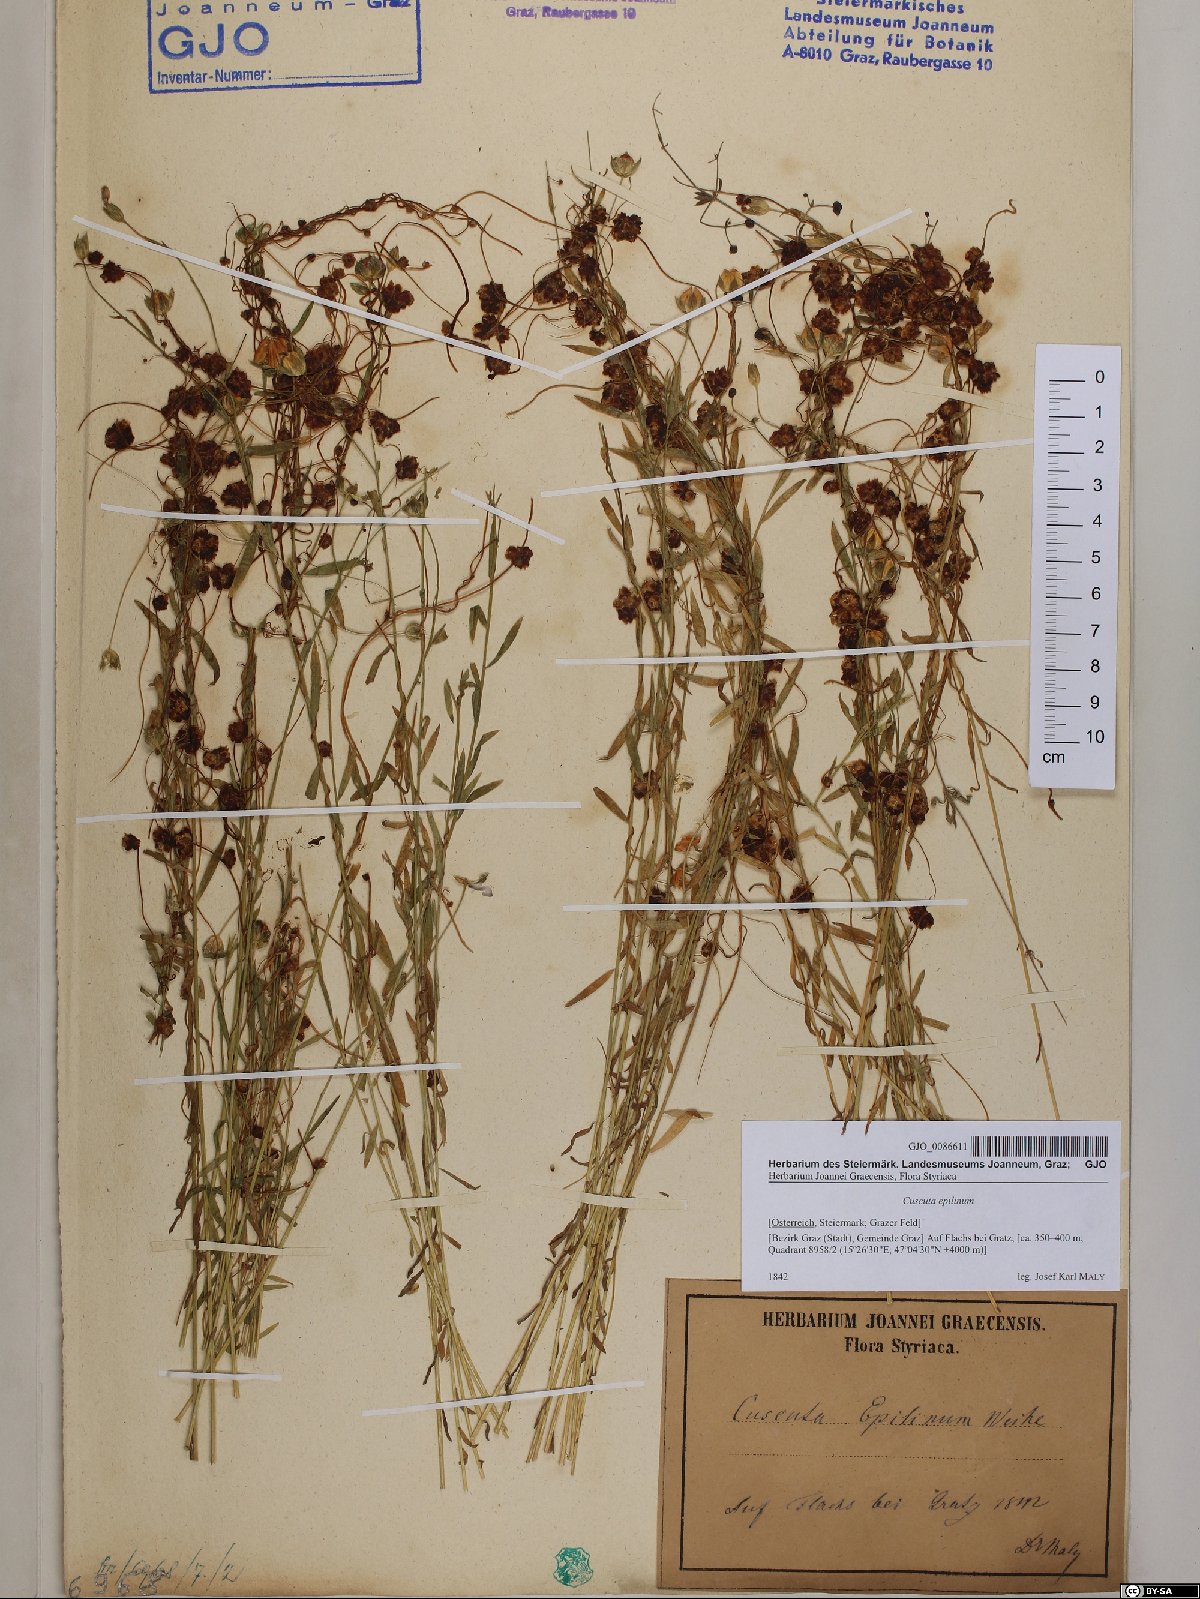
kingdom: Plantae
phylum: Tracheophyta
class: Magnoliopsida
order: Solanales
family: Convolvulaceae
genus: Cuscuta
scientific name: Cuscuta epilinum
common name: Flax dodder
